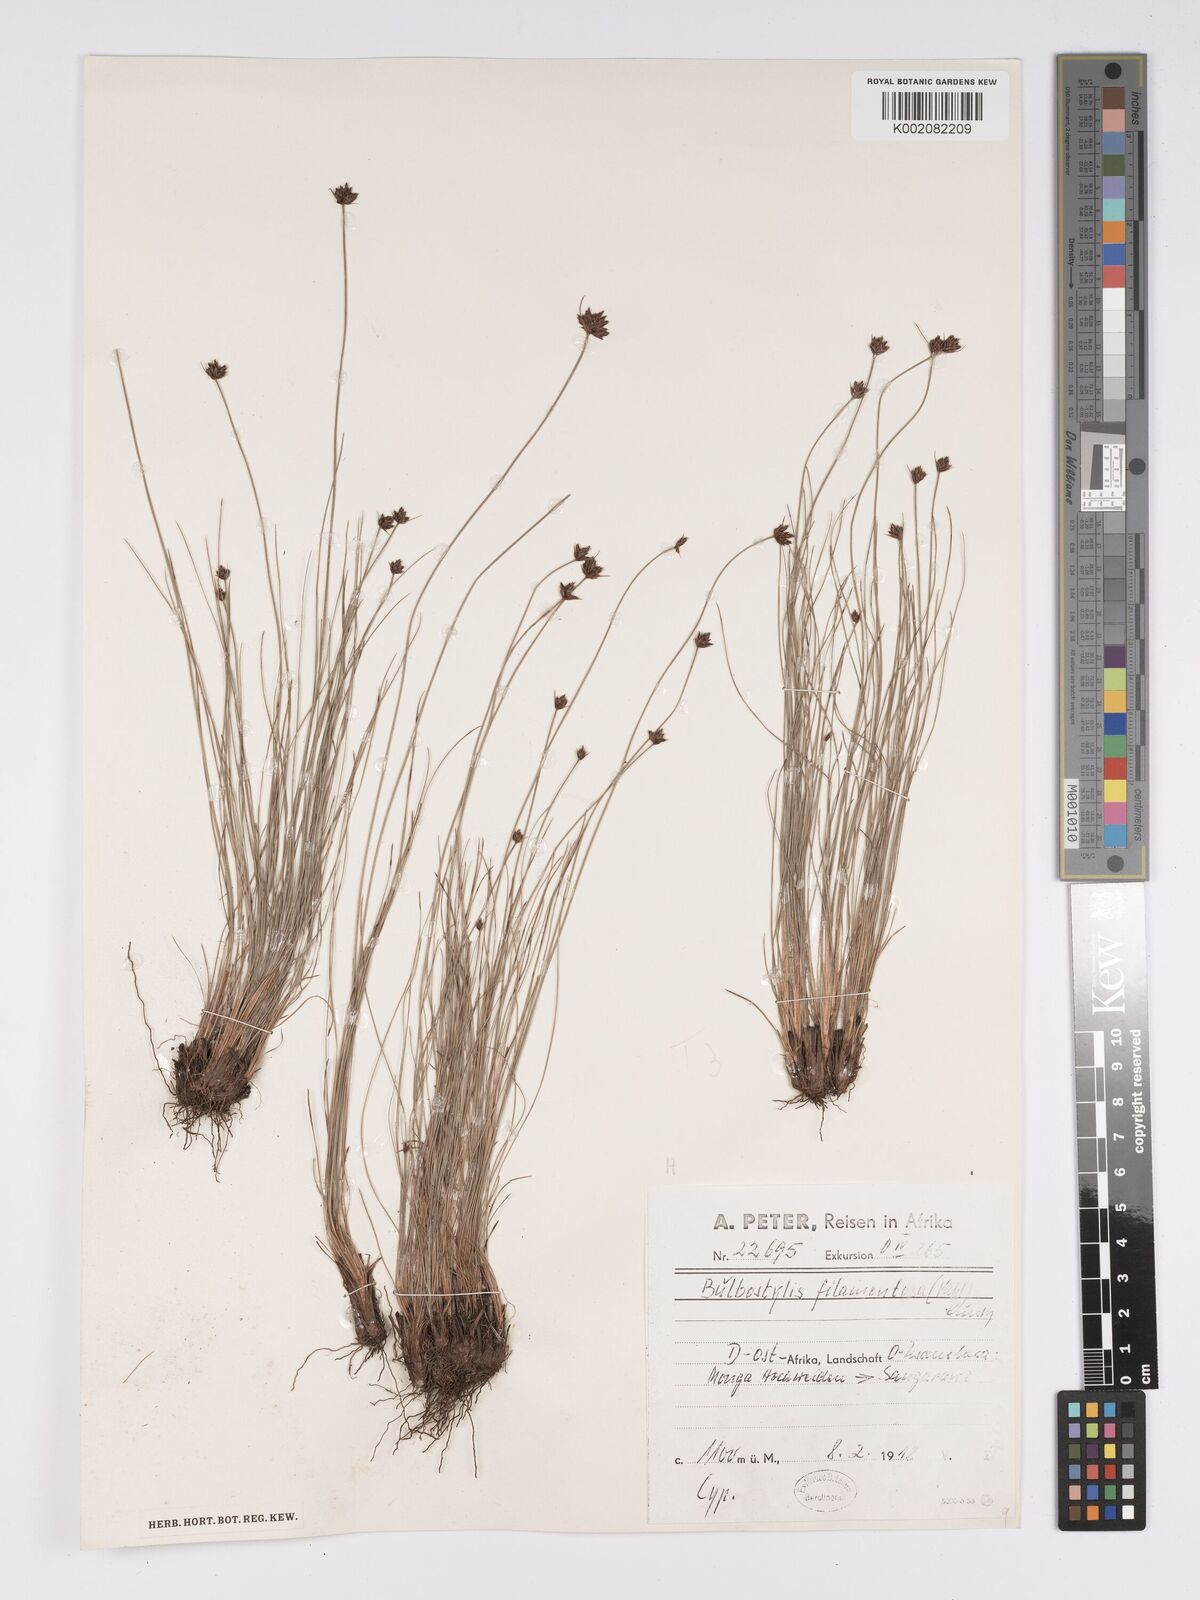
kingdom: Plantae
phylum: Tracheophyta
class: Liliopsida
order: Poales
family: Cyperaceae
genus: Bulbostylis
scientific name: Bulbostylis filamentosa
